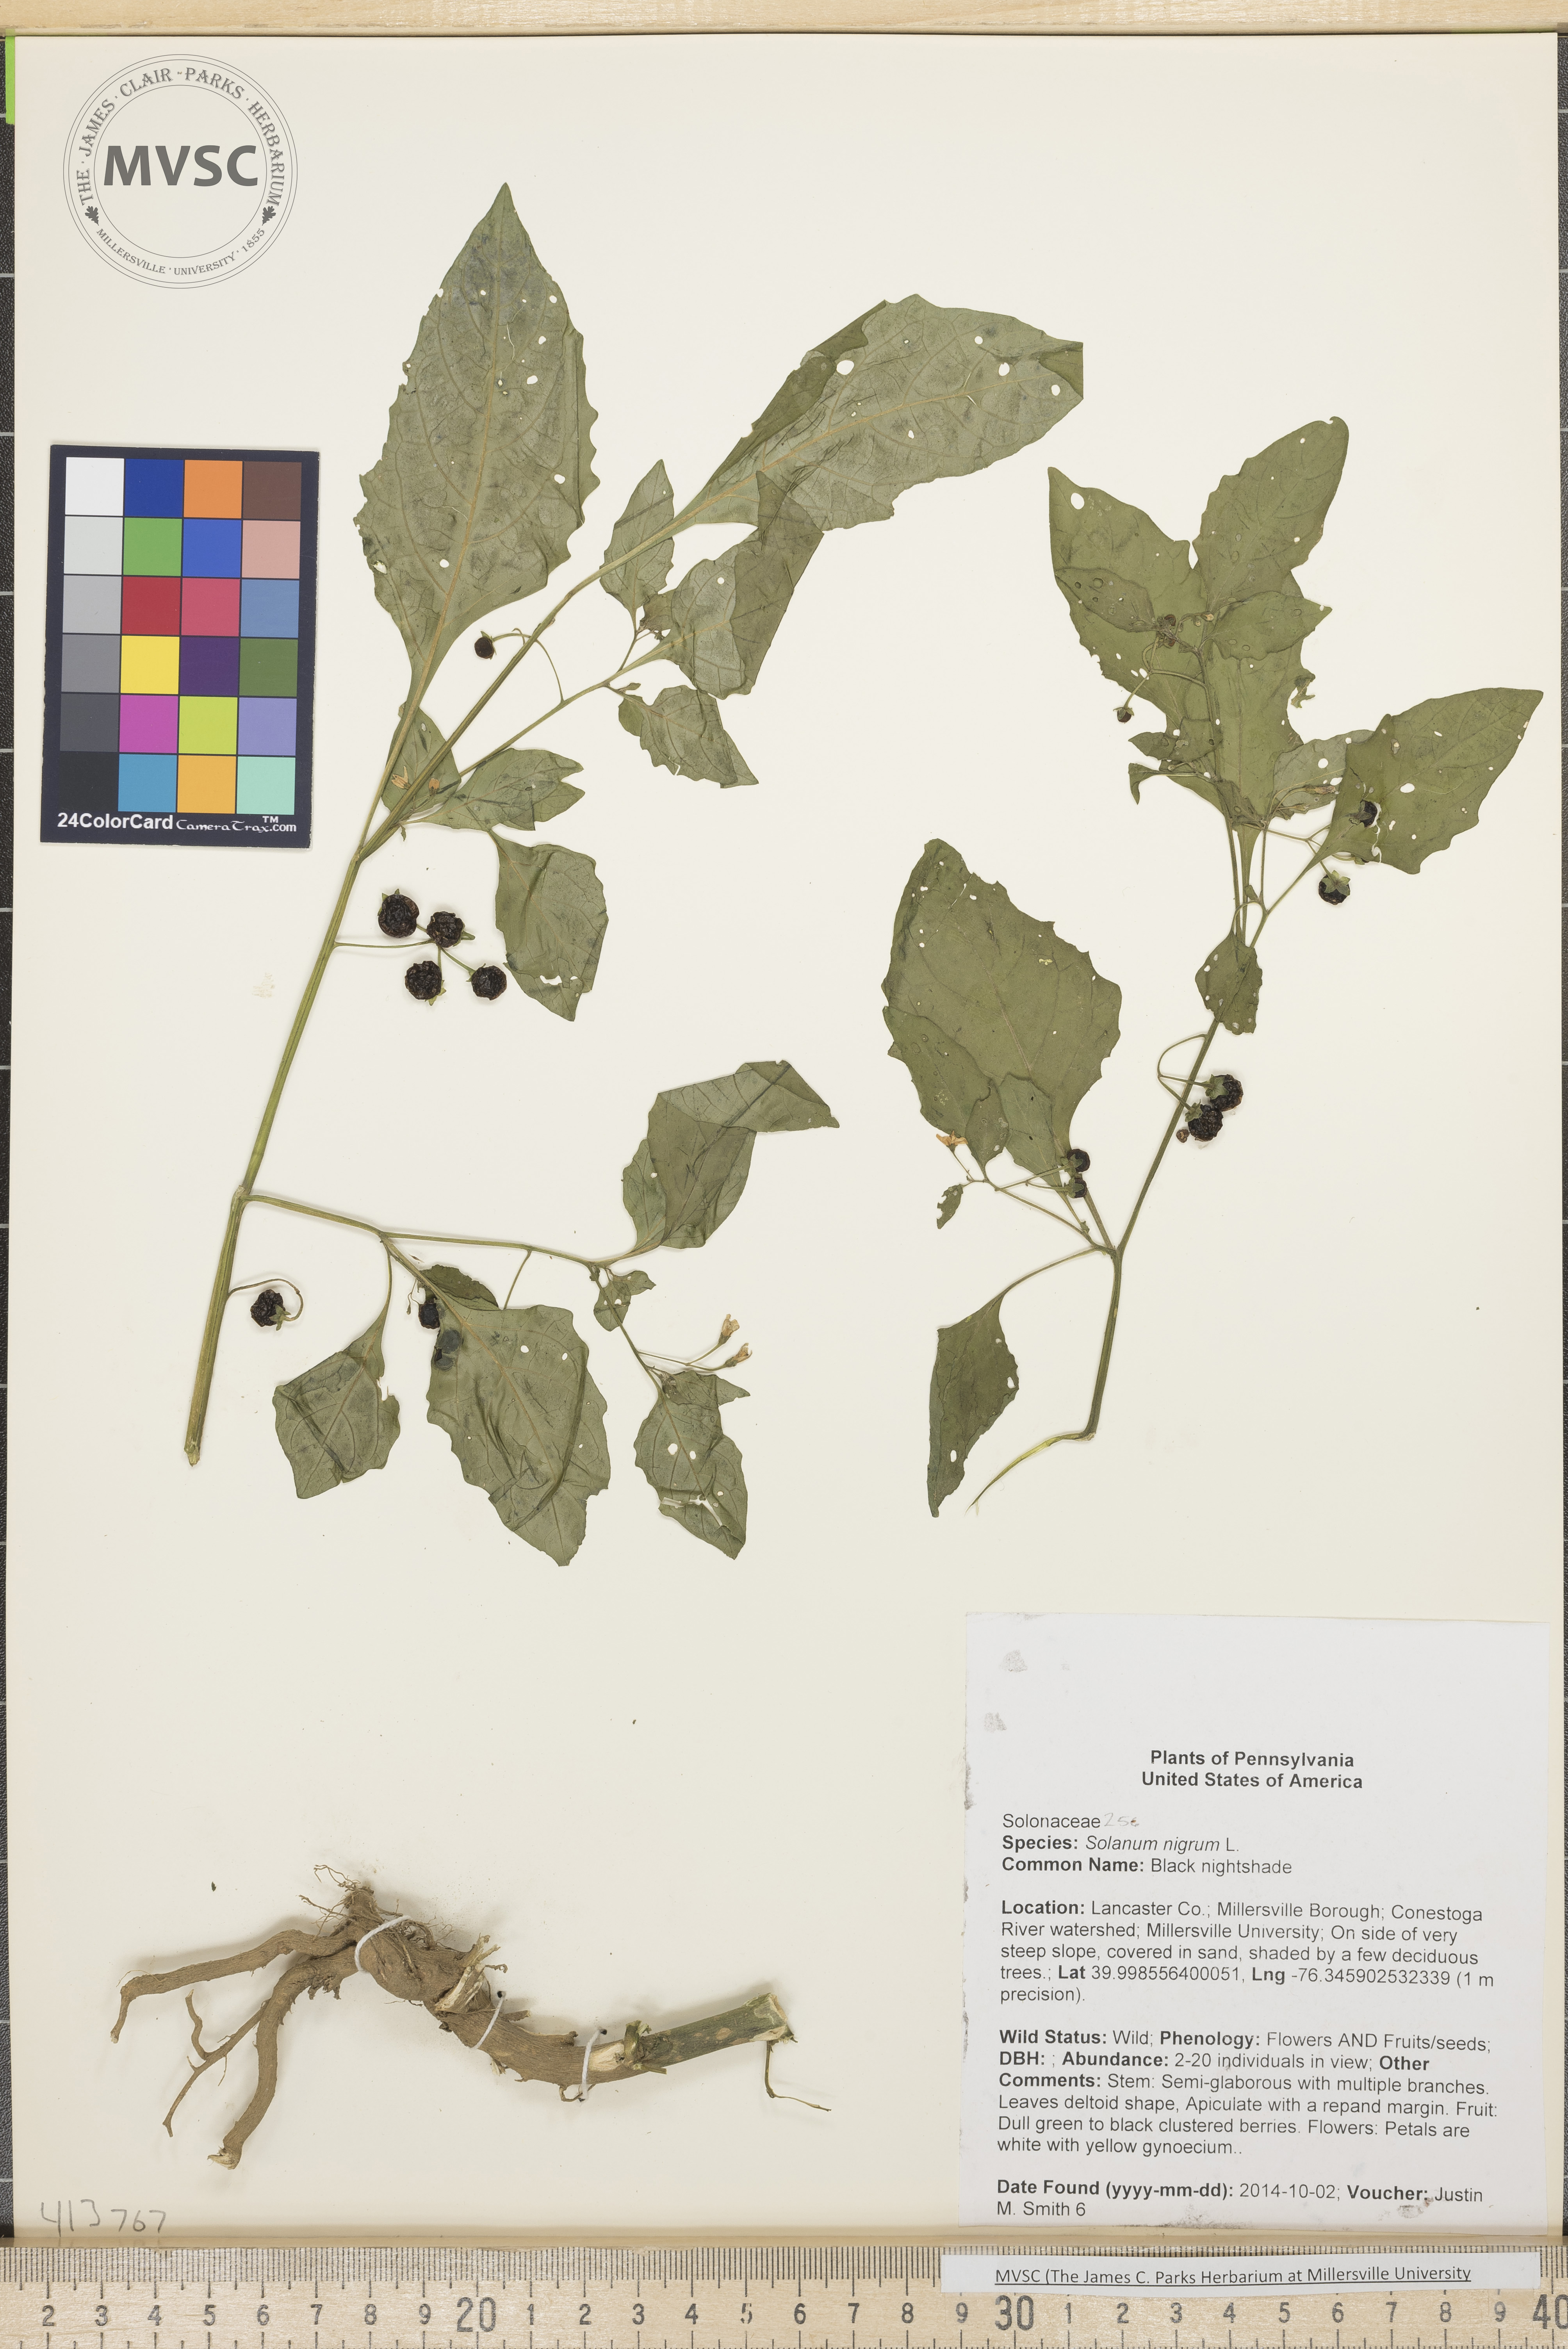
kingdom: Plantae
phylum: Tracheophyta
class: Magnoliopsida
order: Solanales
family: Solanaceae
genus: Solanum
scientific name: Solanum americanum
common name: Black nightshade
